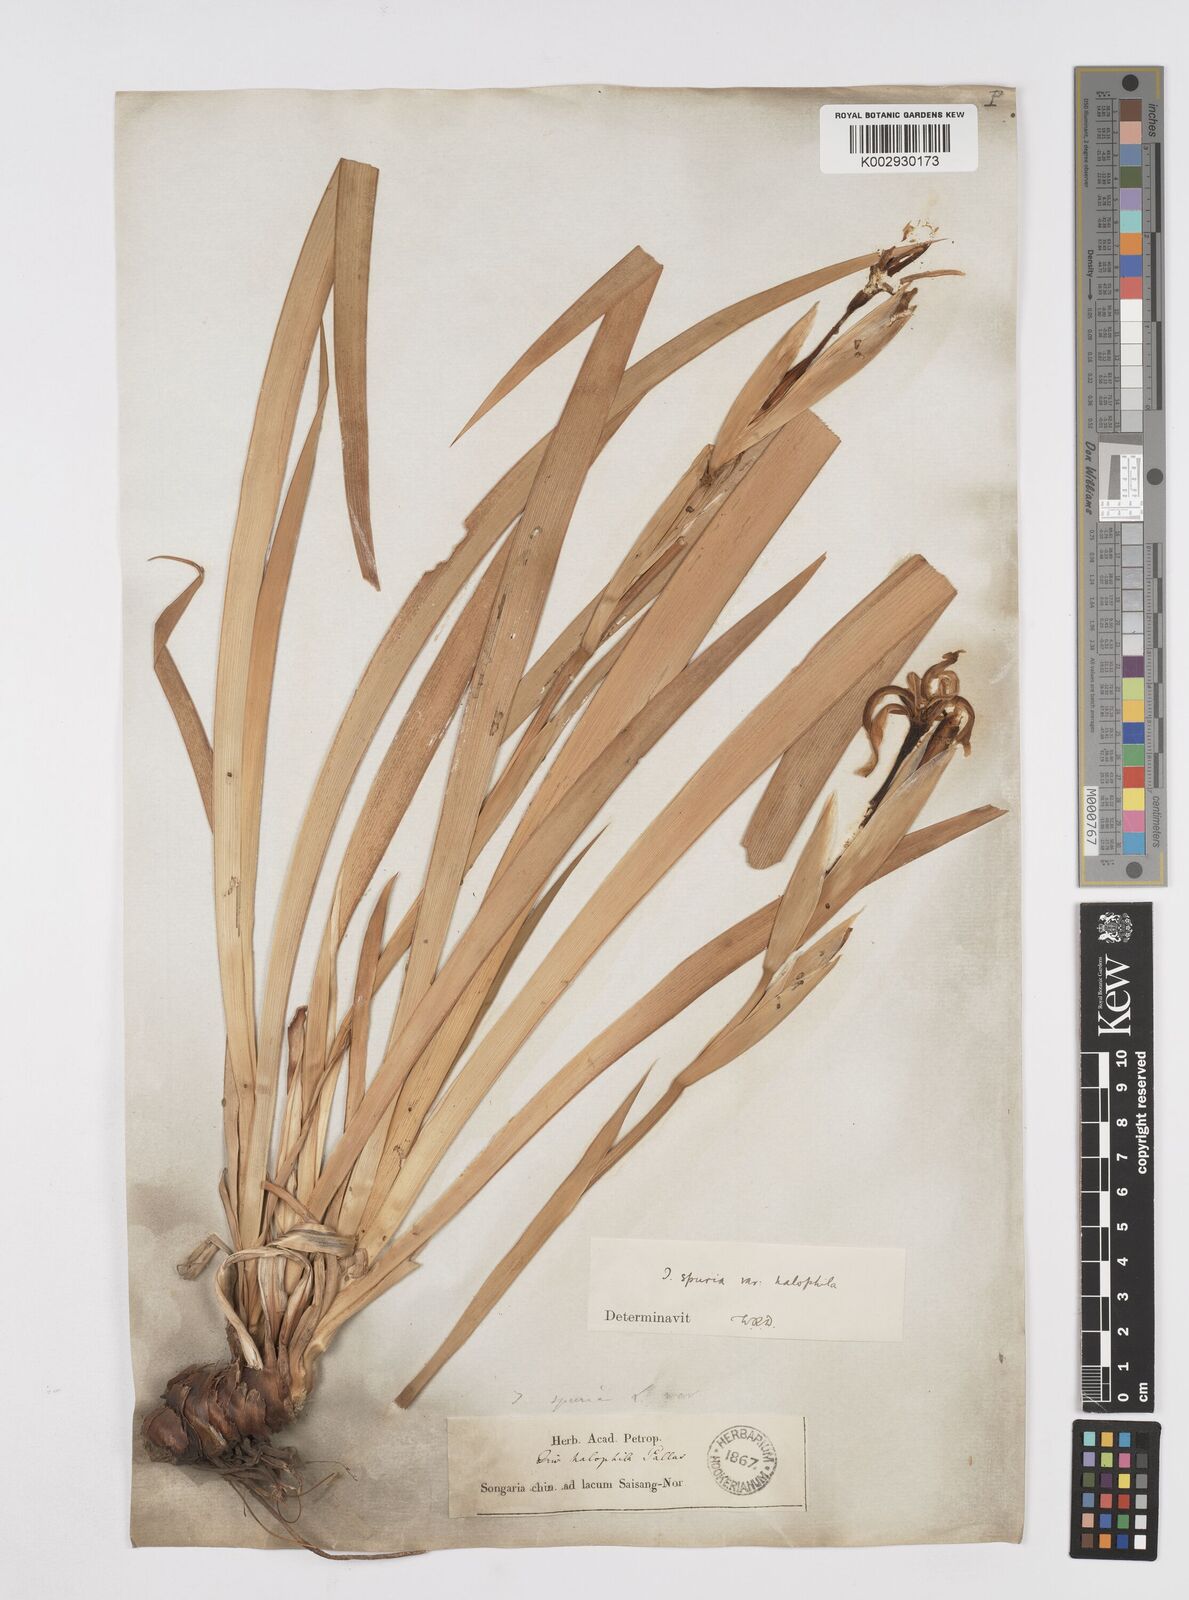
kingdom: Plantae
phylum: Tracheophyta
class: Liliopsida
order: Asparagales
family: Iridaceae
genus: Iris
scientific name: Iris halophila
